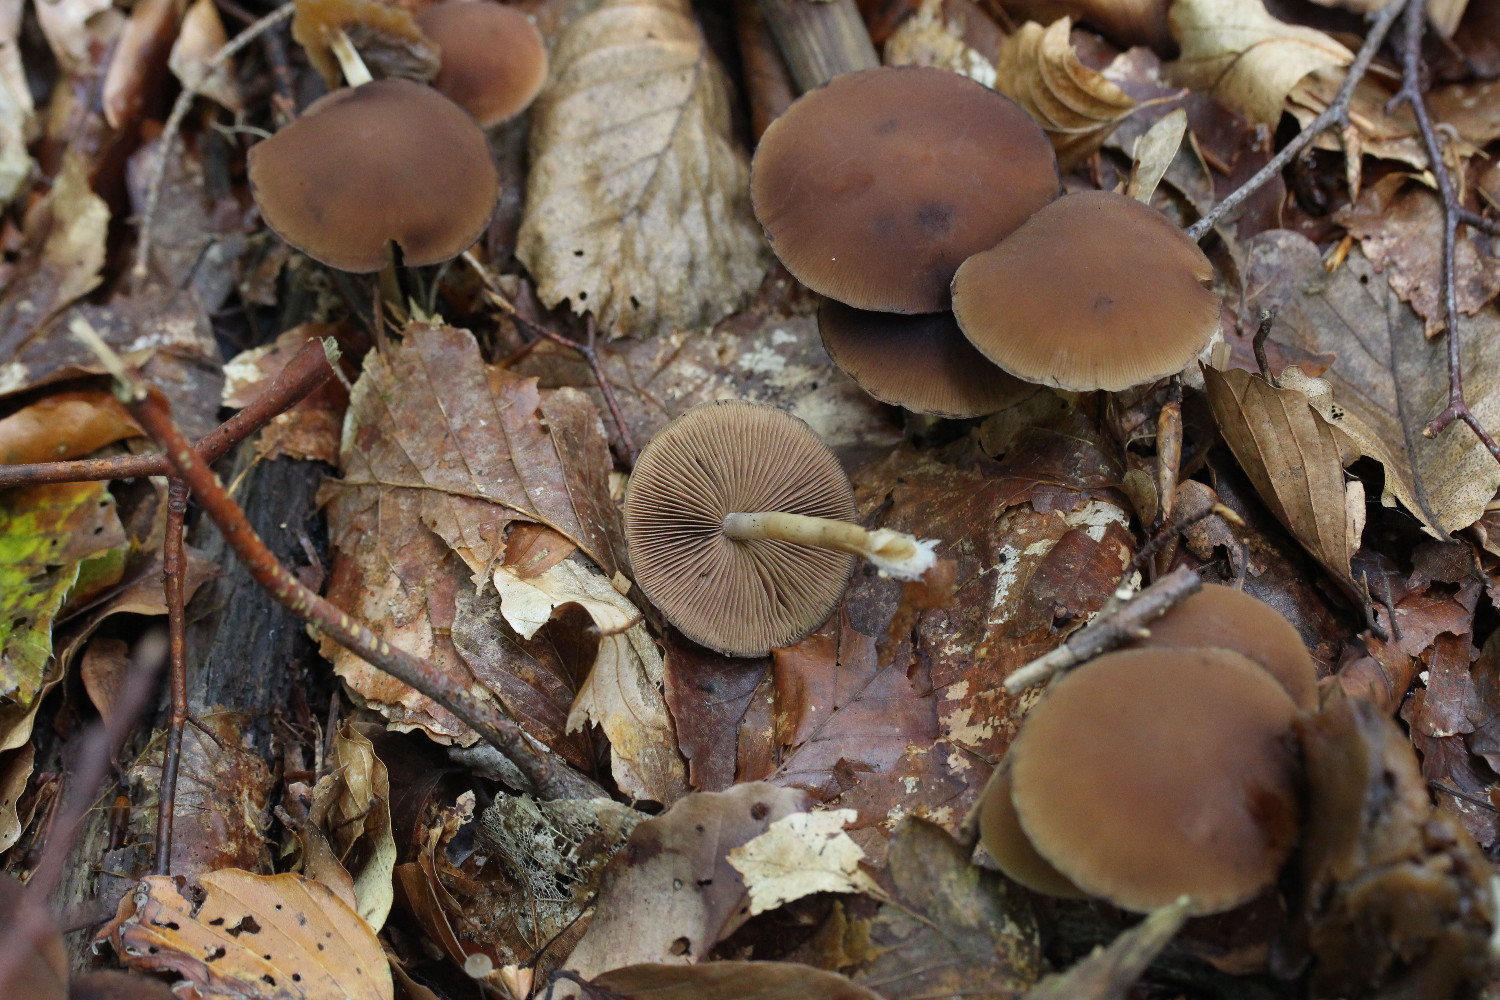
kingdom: Fungi
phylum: Basidiomycota
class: Agaricomycetes
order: Agaricales
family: Psathyrellaceae
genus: Psathyrella
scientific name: Psathyrella piluliformis
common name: lysstokket mørkhat
